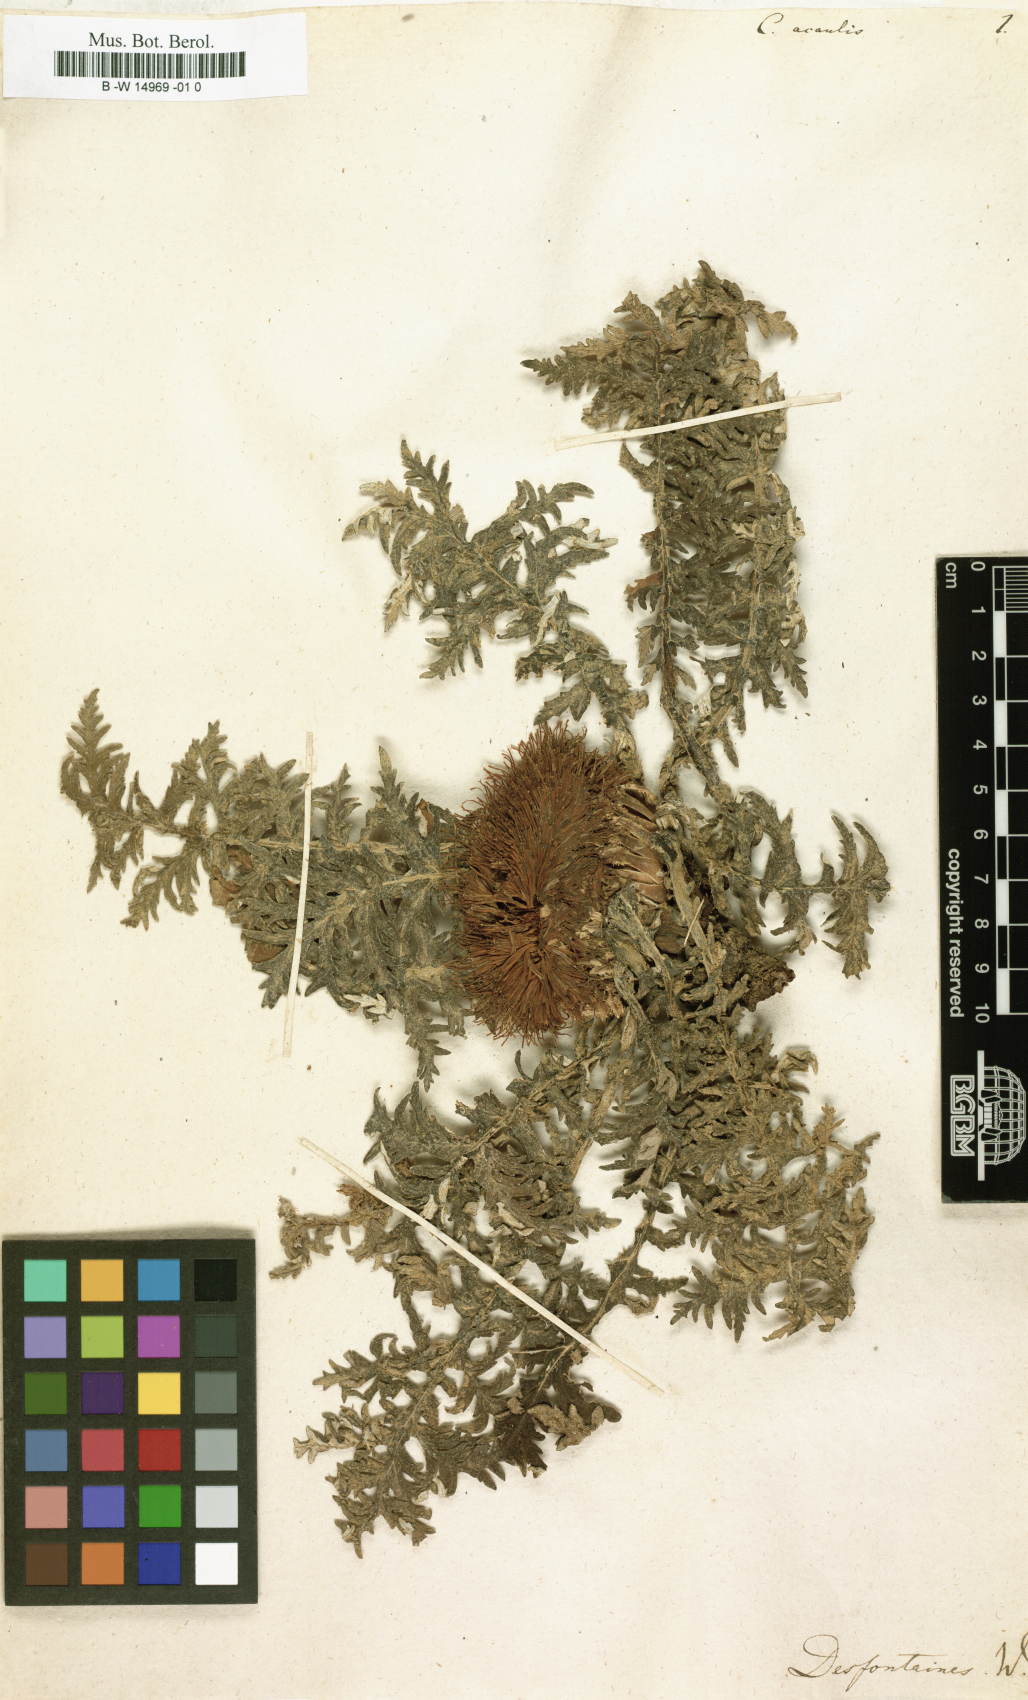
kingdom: Plantae
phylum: Tracheophyta
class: Magnoliopsida
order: Asterales
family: Asteraceae
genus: Leuzea
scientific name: Leuzea
